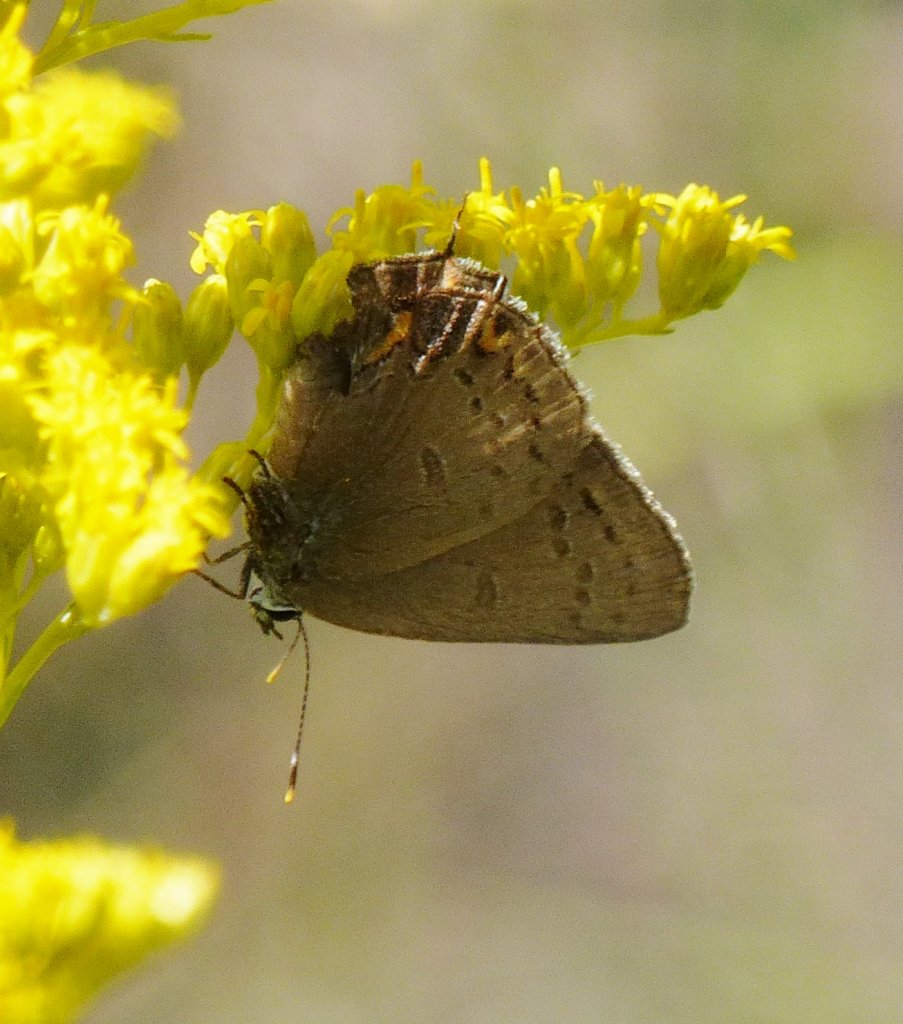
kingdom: Animalia
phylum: Arthropoda
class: Insecta
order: Lepidoptera
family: Lycaenidae
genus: Satyrium
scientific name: Satyrium edwardsii
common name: Edwards' Hairstreak
